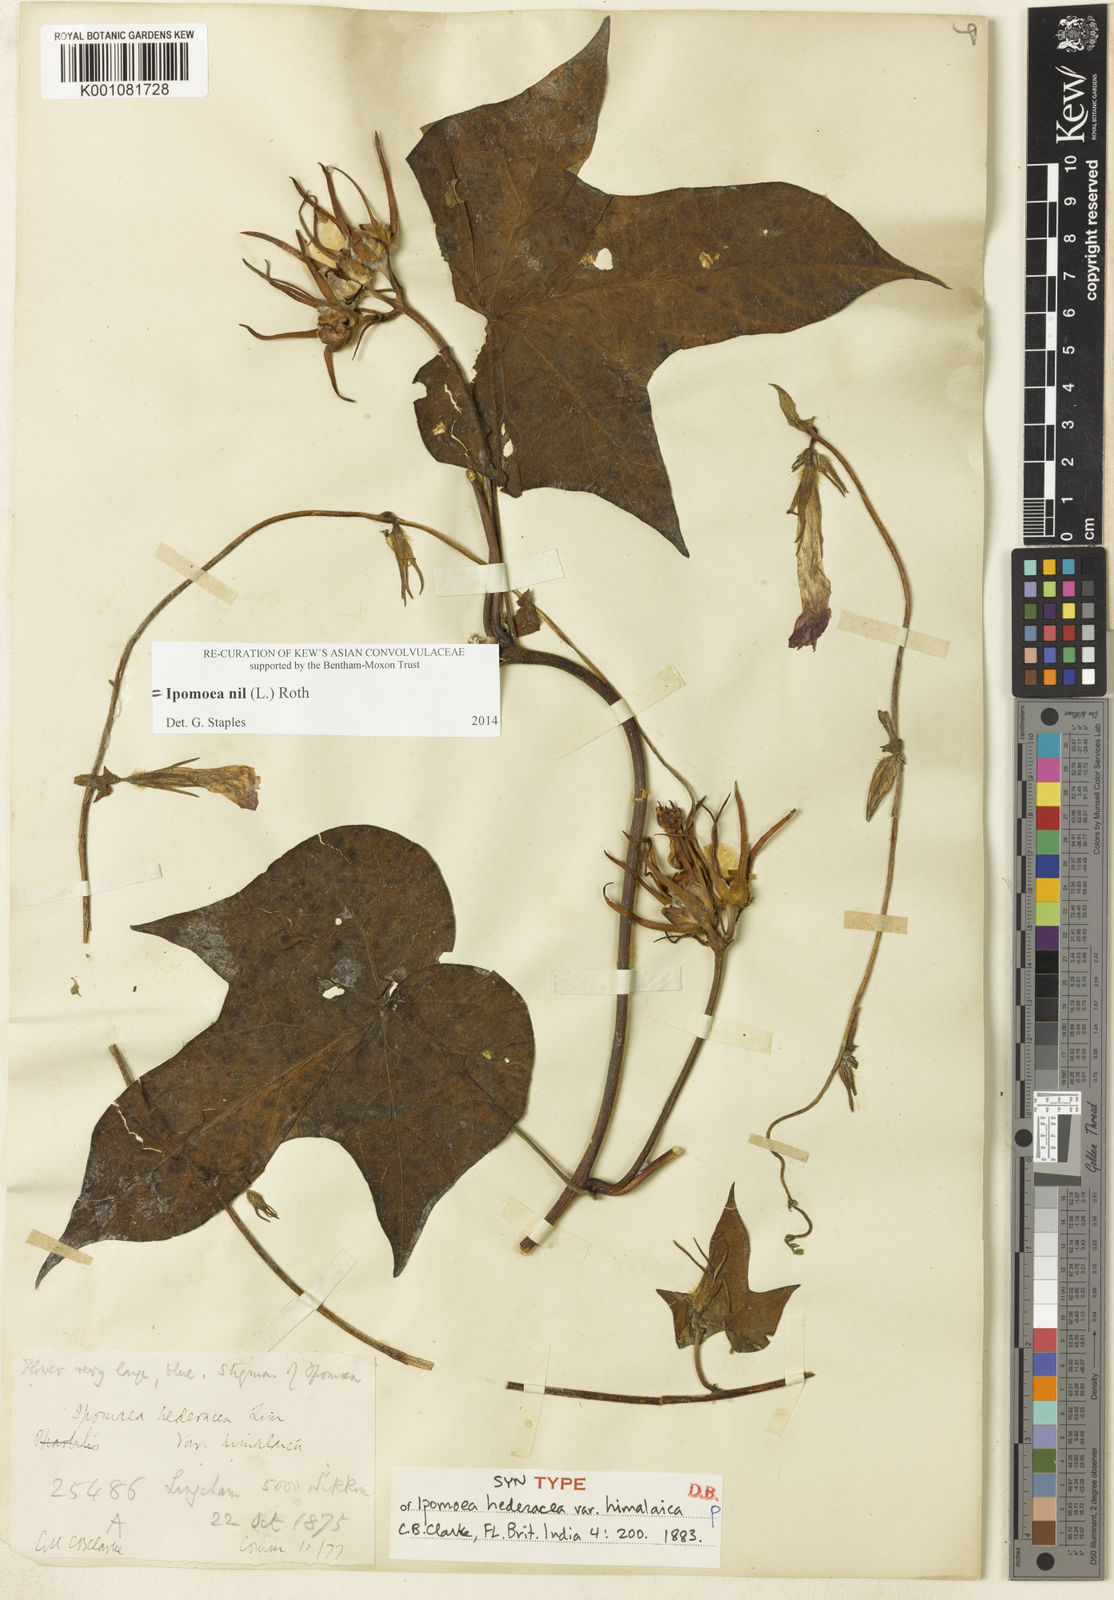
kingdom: Plantae
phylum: Tracheophyta
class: Magnoliopsida
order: Solanales
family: Convolvulaceae
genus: Ipomoea
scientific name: Ipomoea nil
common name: Japanese morning-glory
